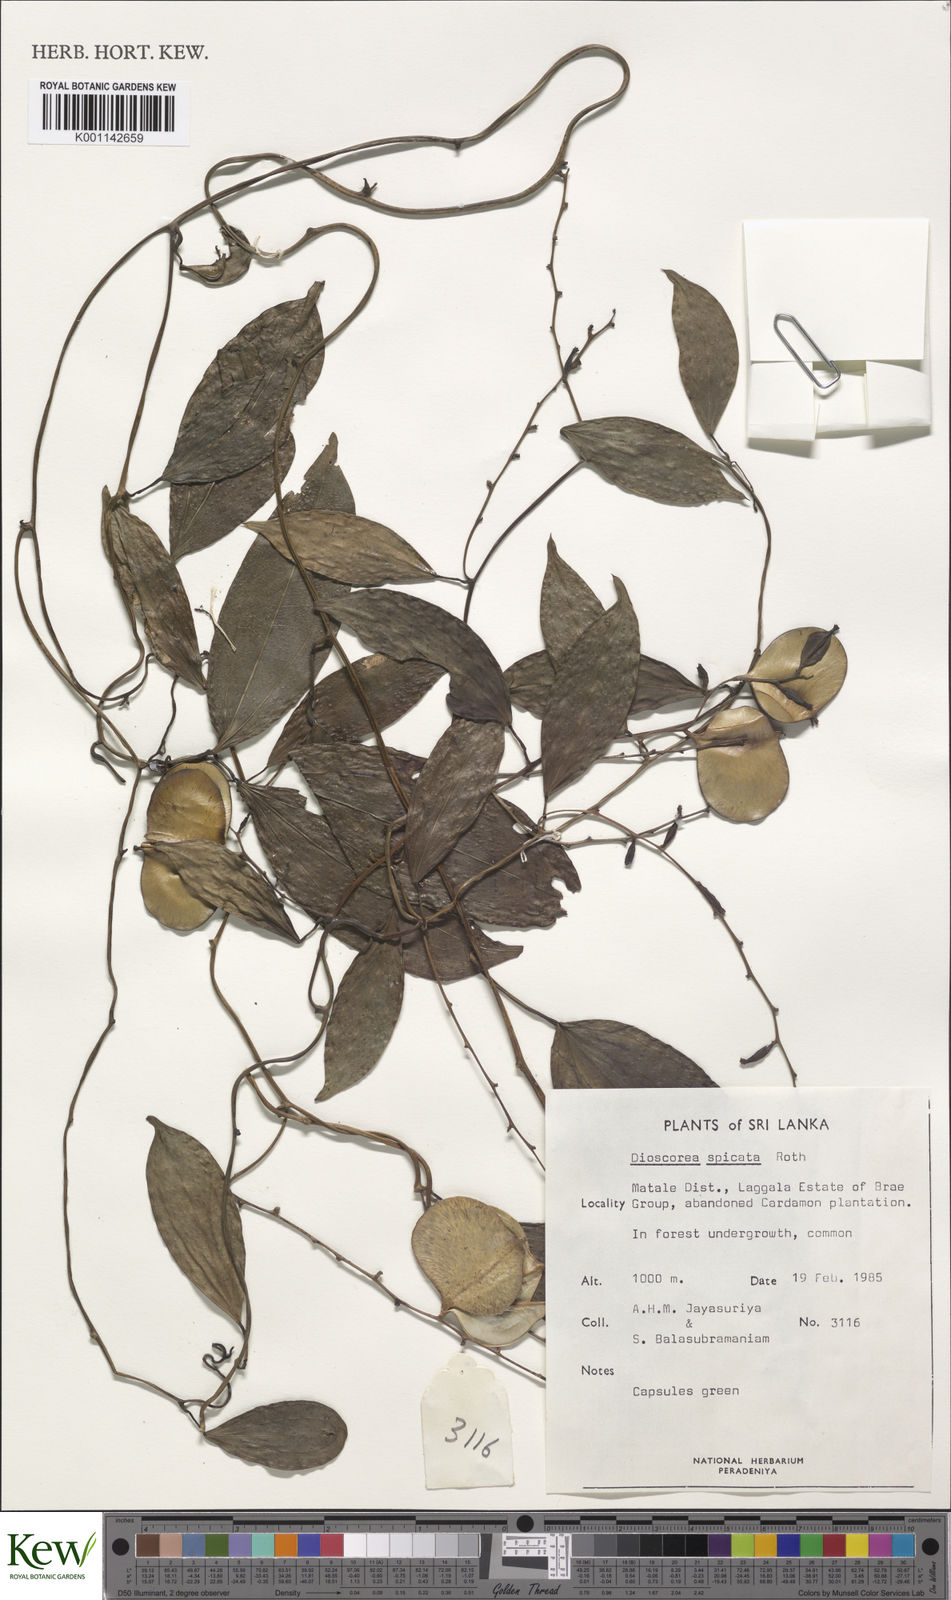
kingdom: Plantae
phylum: Tracheophyta
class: Liliopsida
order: Dioscoreales
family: Dioscoreaceae
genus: Dioscorea
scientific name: Dioscorea spicata
